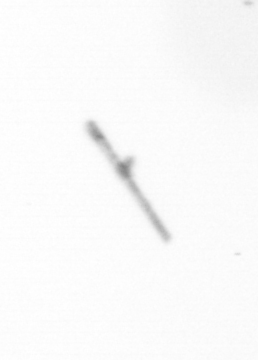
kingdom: Chromista
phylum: Ochrophyta
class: Bacillariophyceae
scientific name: Bacillariophyceae
